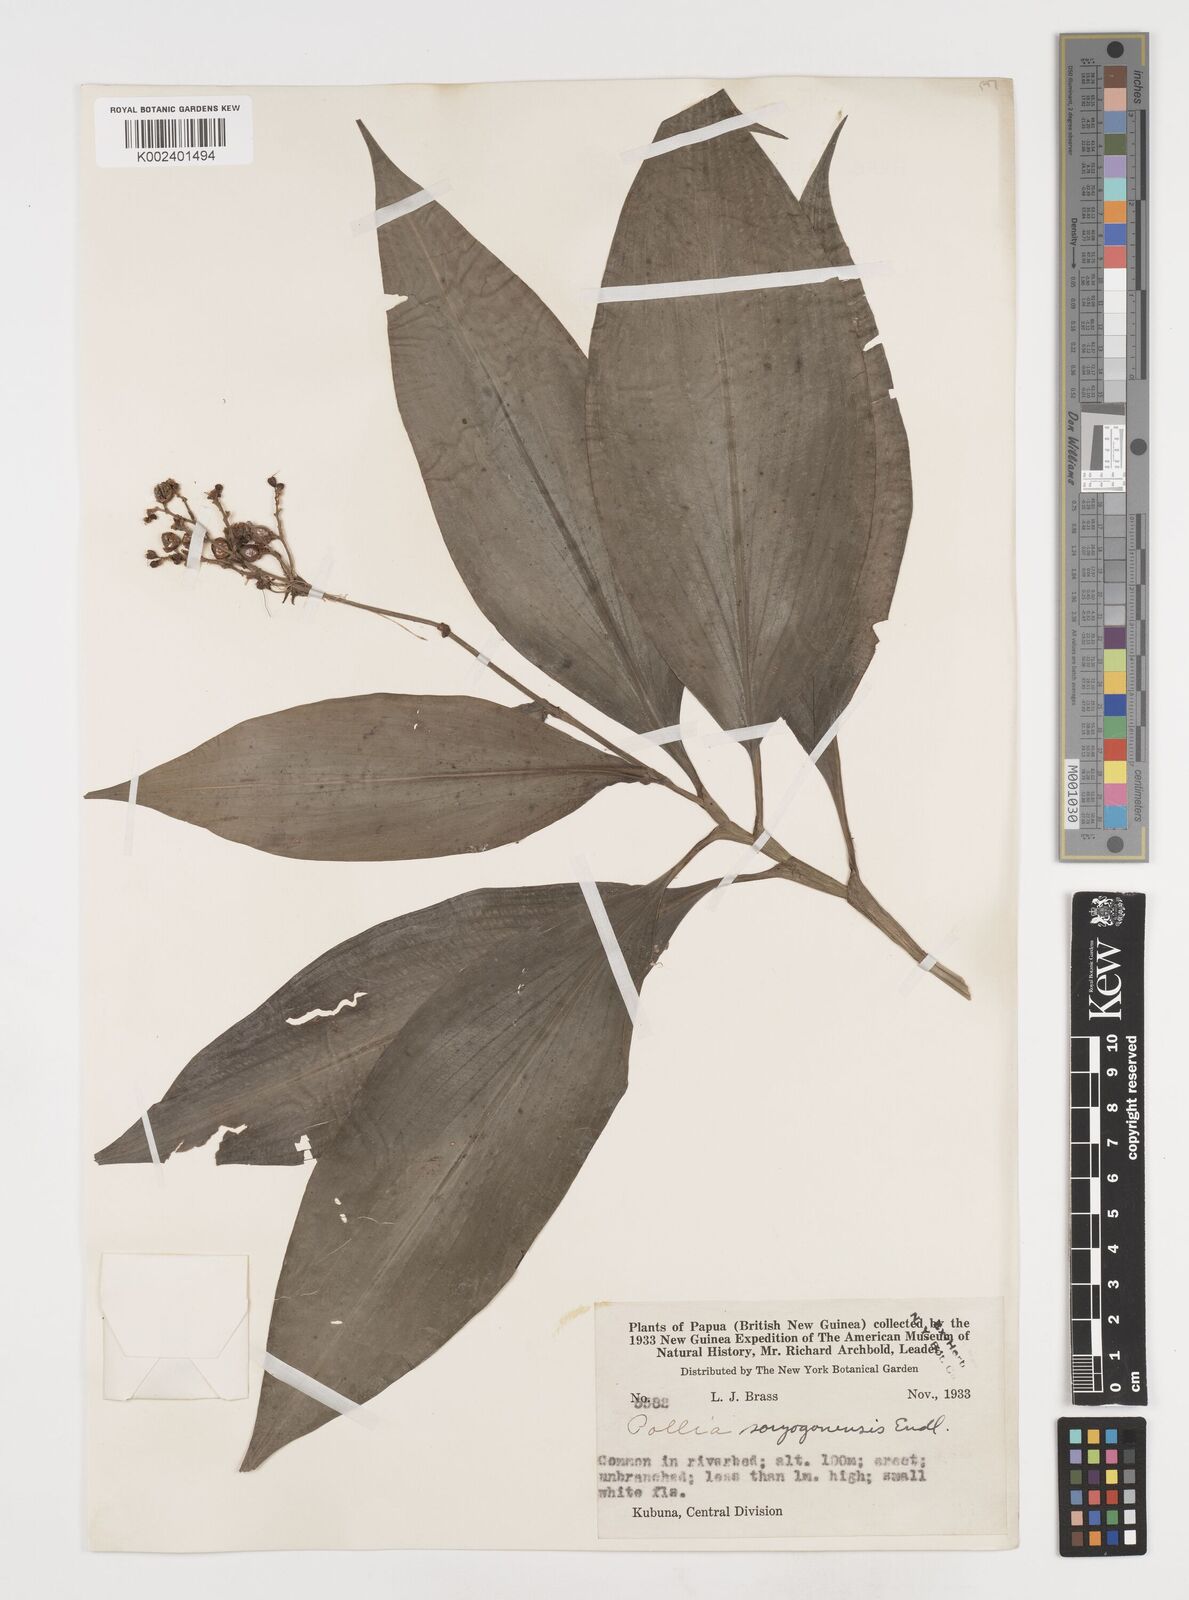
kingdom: Plantae
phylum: Tracheophyta
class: Liliopsida
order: Commelinales
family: Commelinaceae
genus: Pollia
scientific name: Pollia secundiflora
